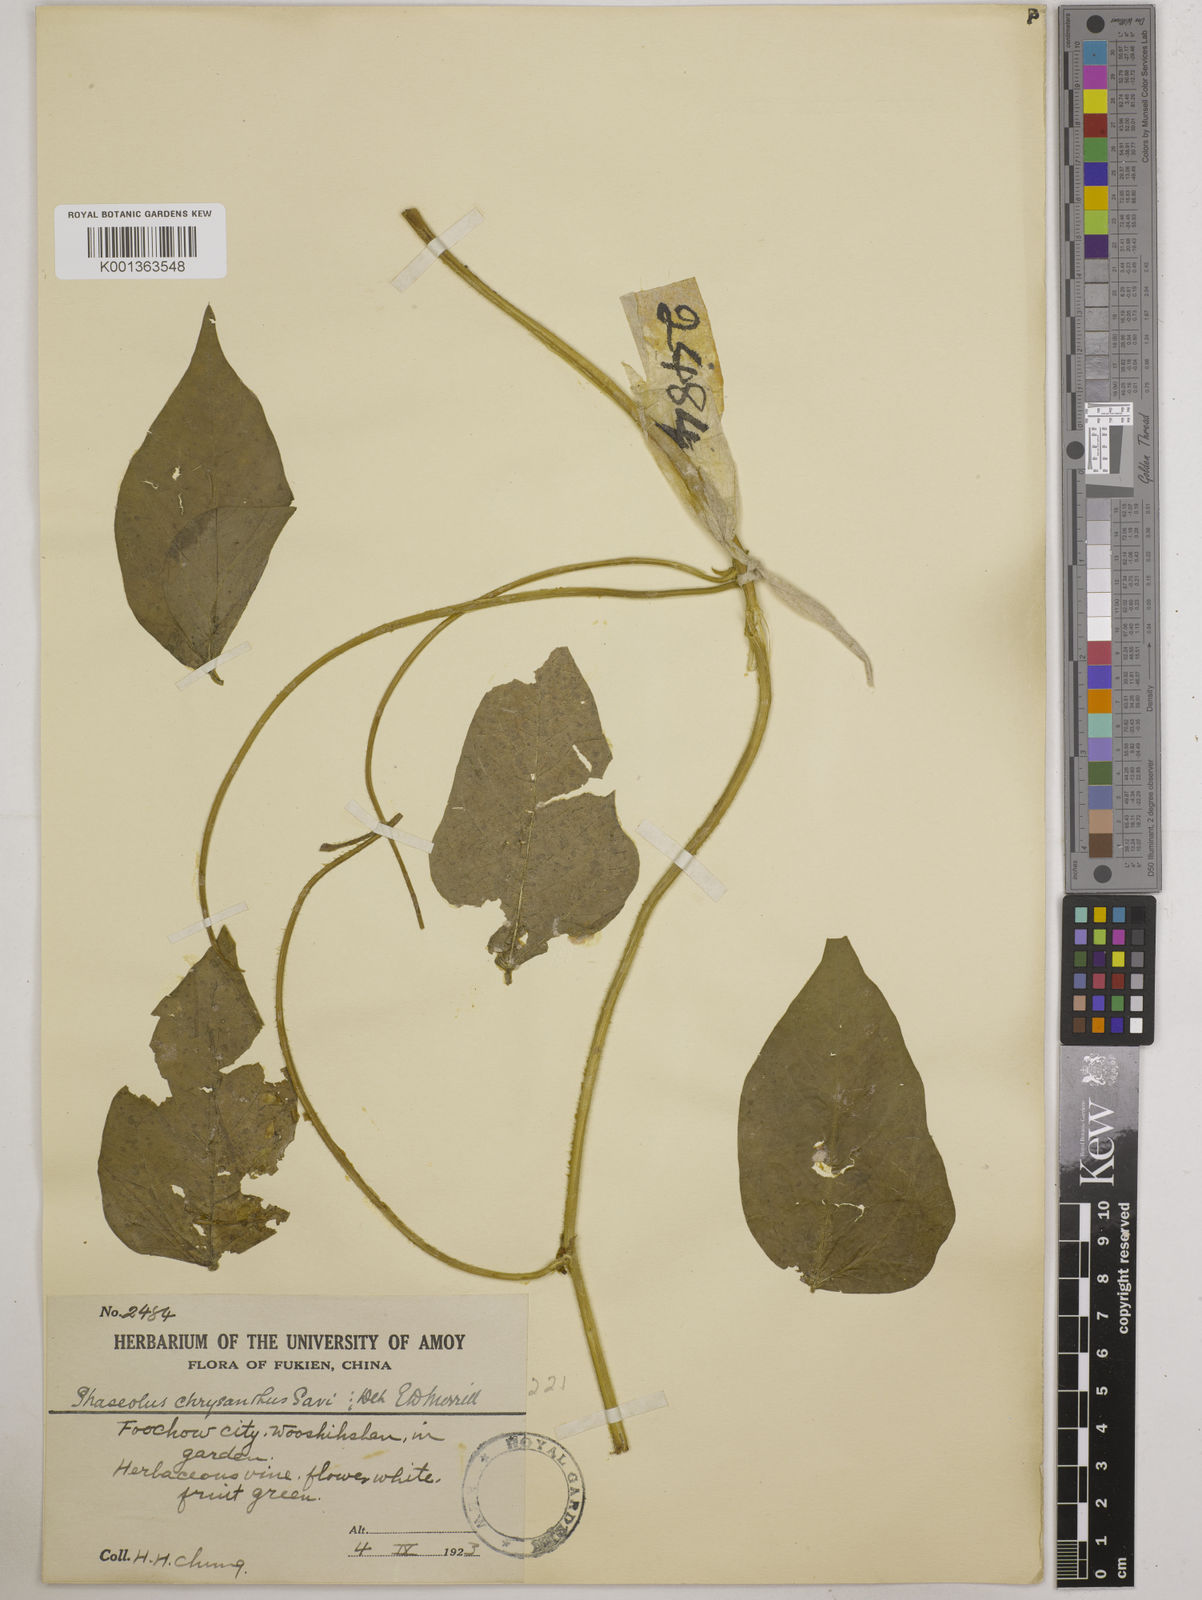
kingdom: Plantae
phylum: Tracheophyta
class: Magnoliopsida
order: Fabales
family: Fabaceae
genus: Vigna
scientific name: Vigna umbellata
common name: Oriental-bean
